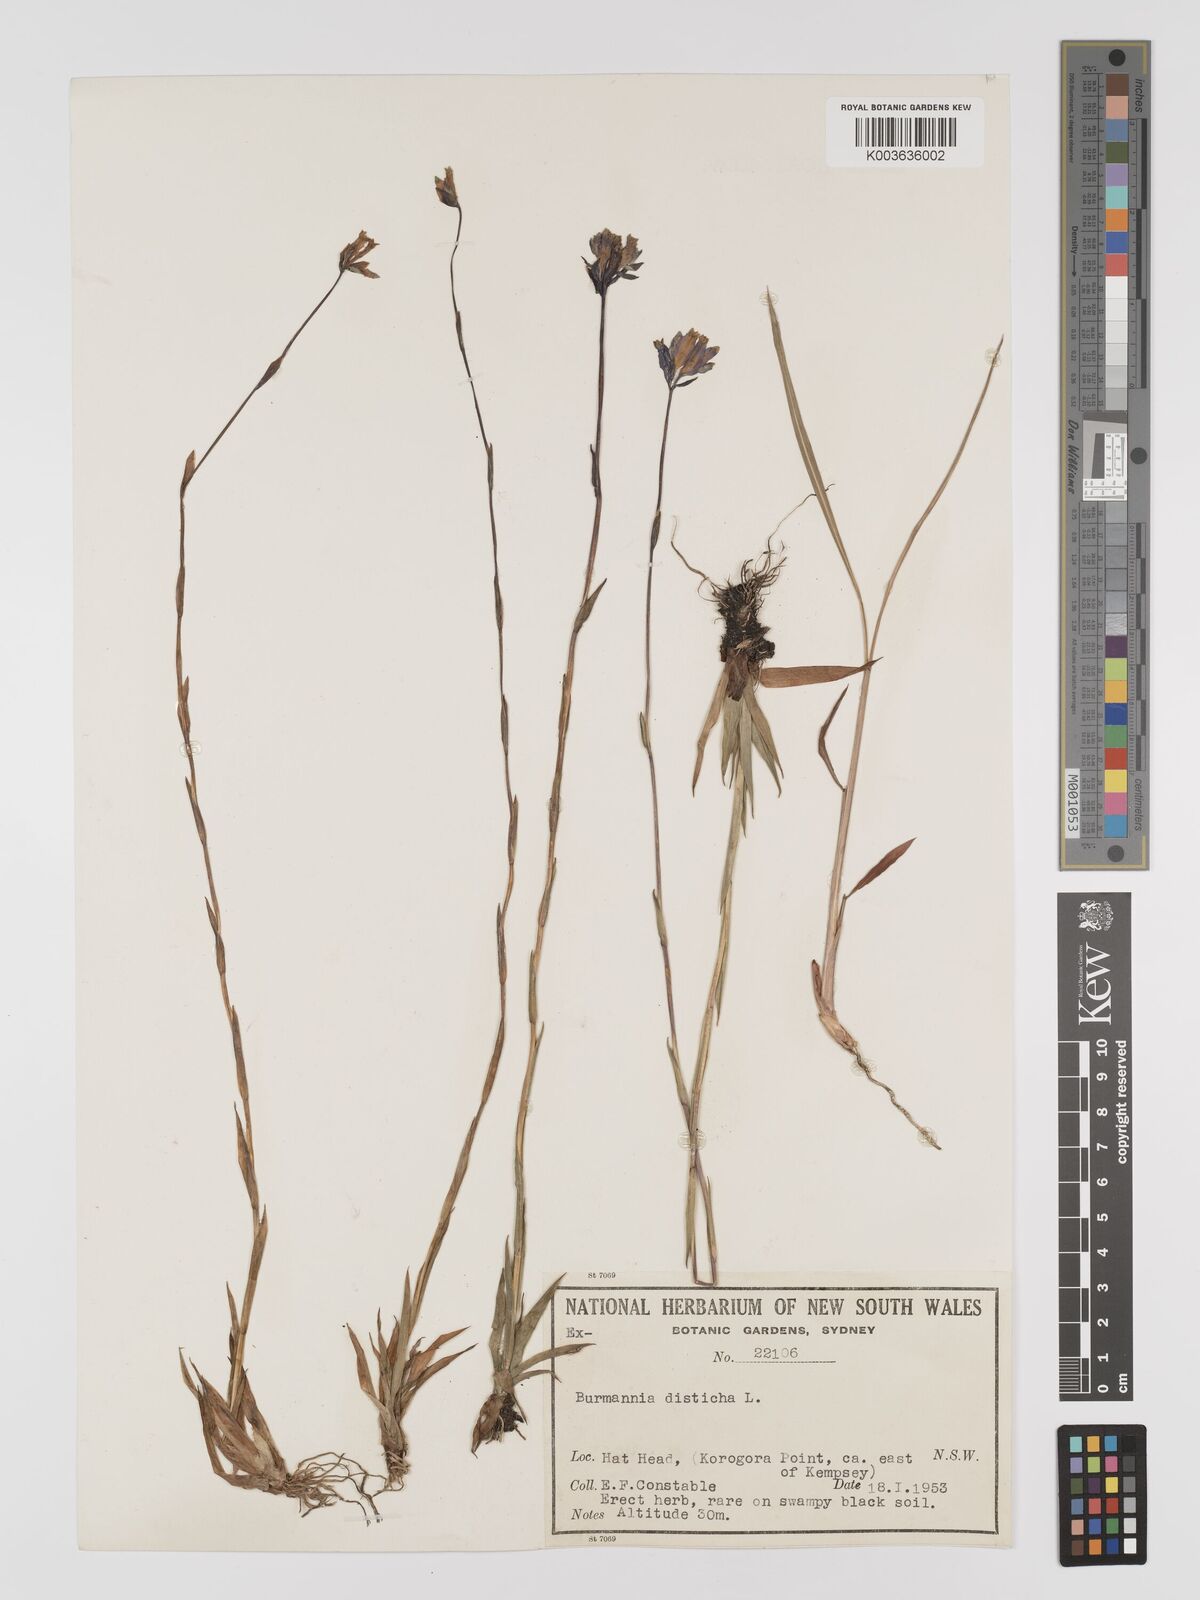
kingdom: Plantae
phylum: Tracheophyta
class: Liliopsida
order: Dioscoreales
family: Burmanniaceae
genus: Burmannia
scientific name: Burmannia disticha
